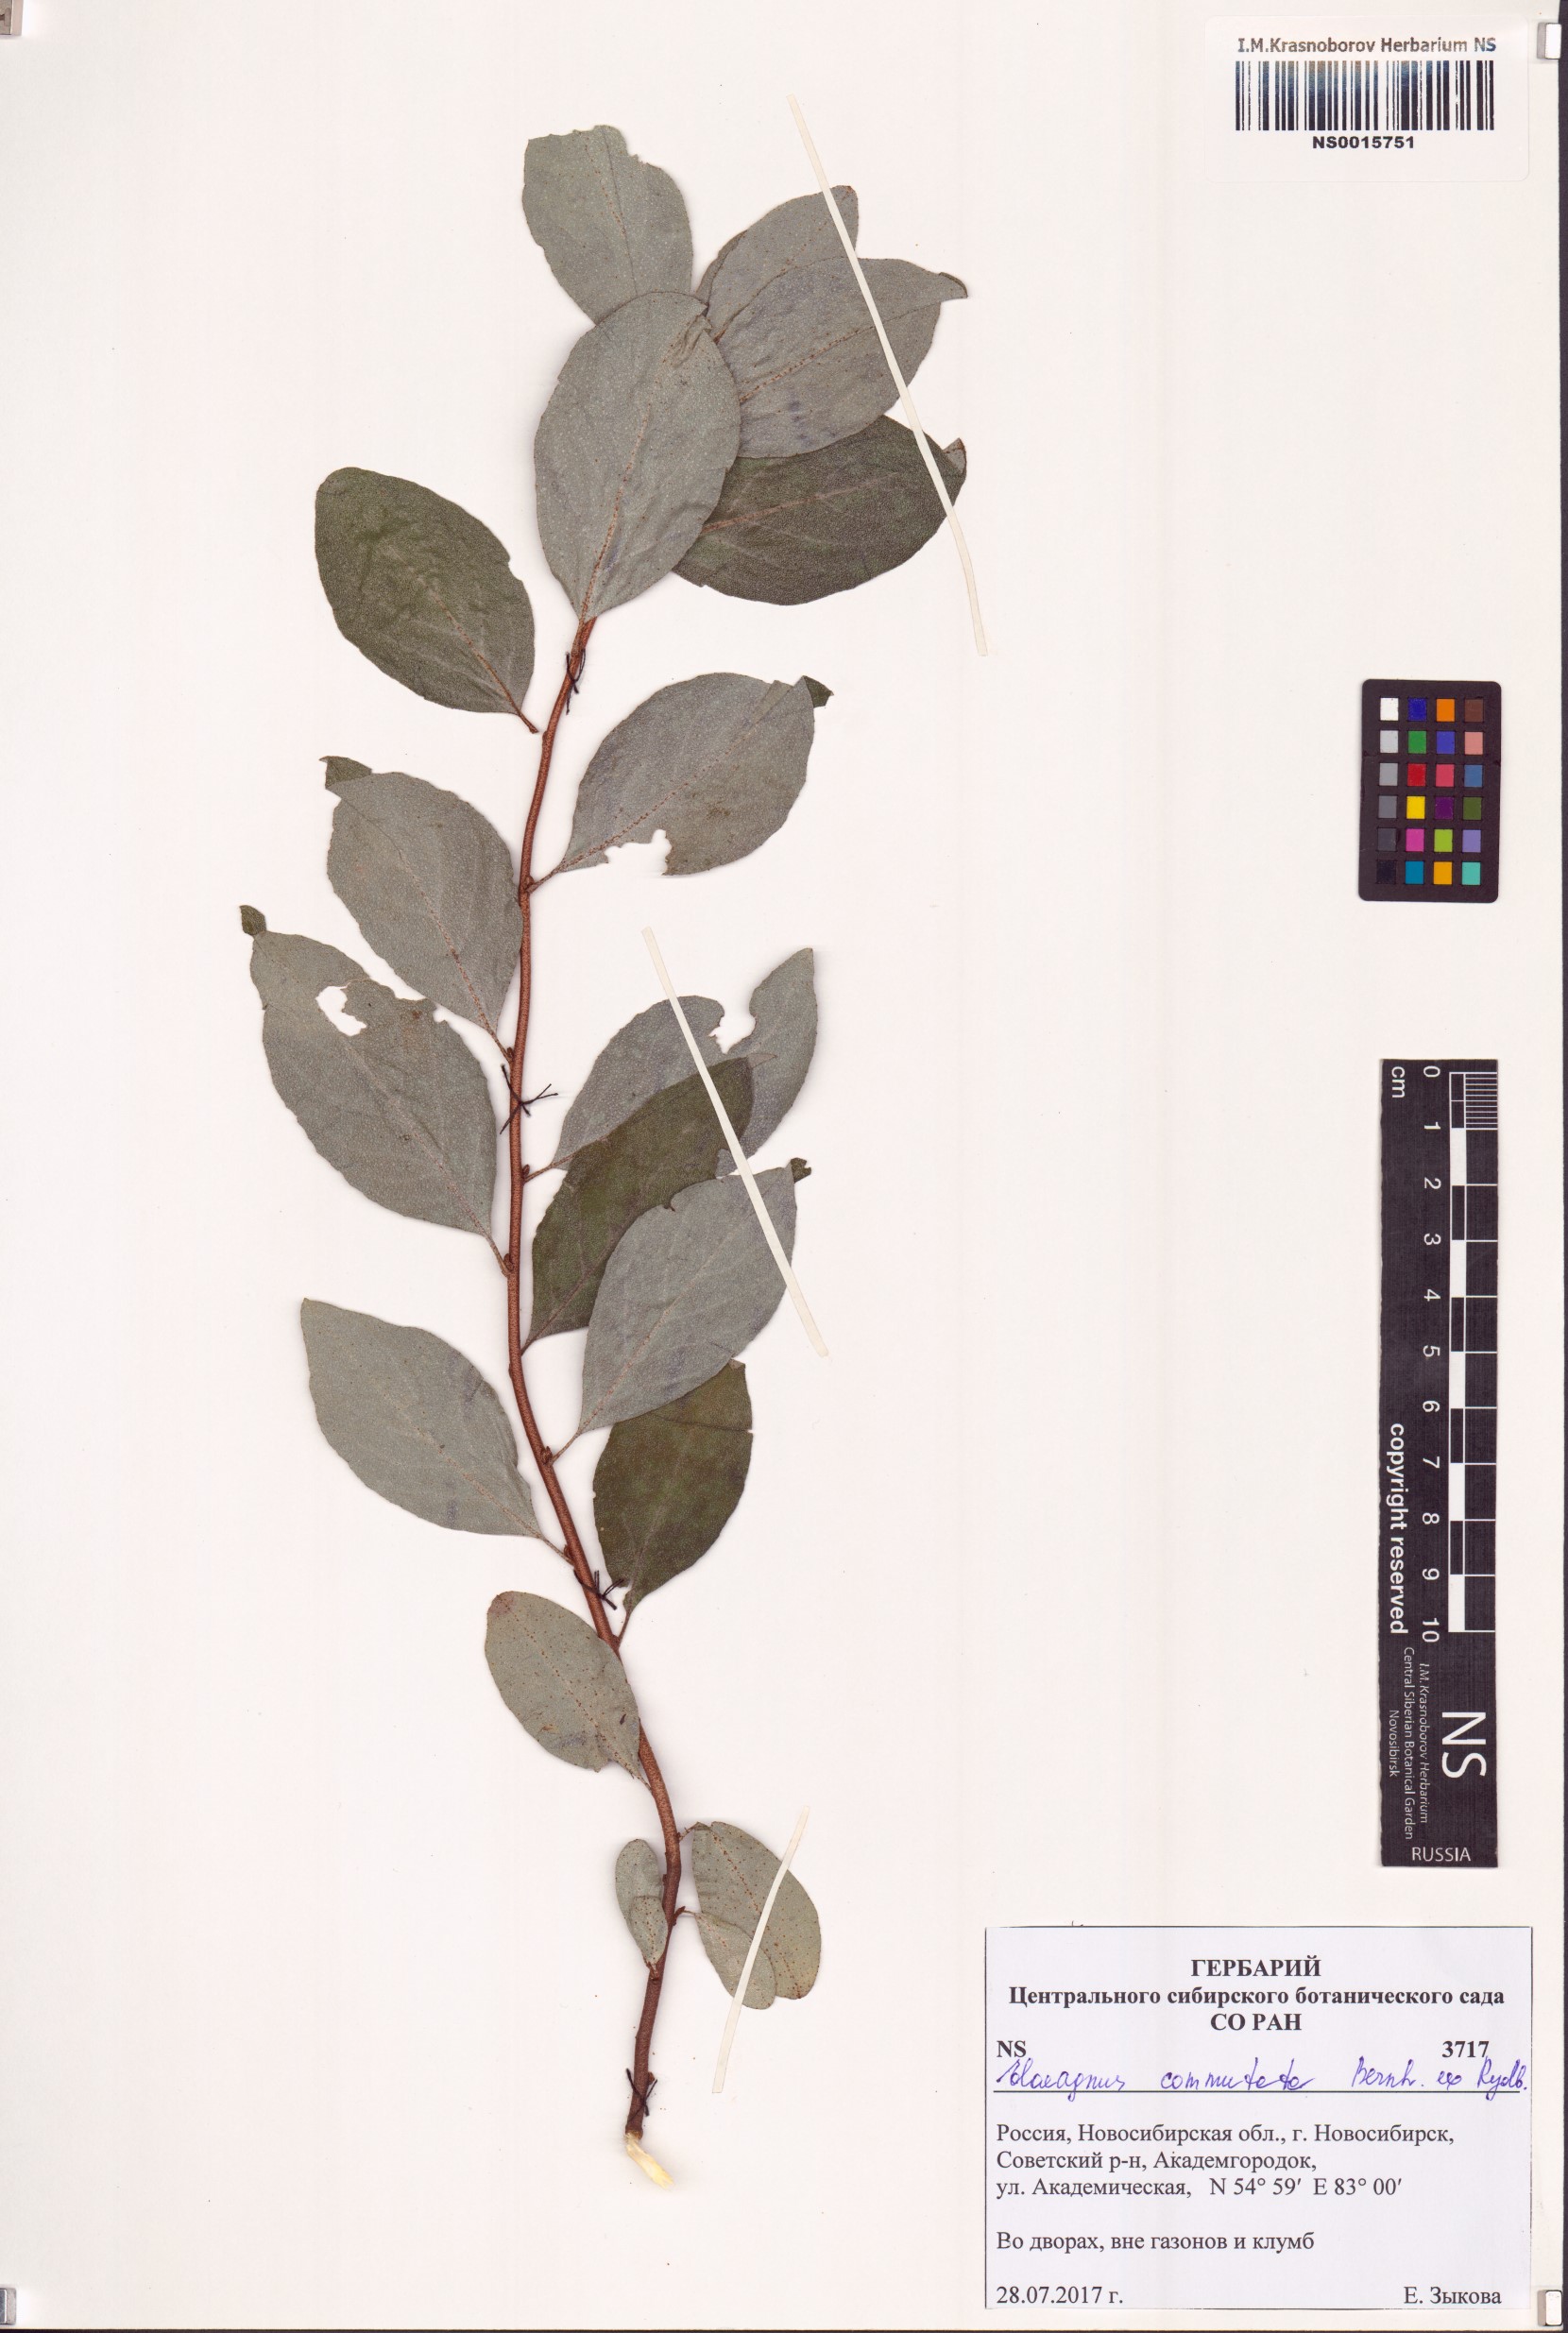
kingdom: Plantae
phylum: Tracheophyta
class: Magnoliopsida
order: Rosales
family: Elaeagnaceae
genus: Elaeagnus
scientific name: Elaeagnus commutata
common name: Silverberry
